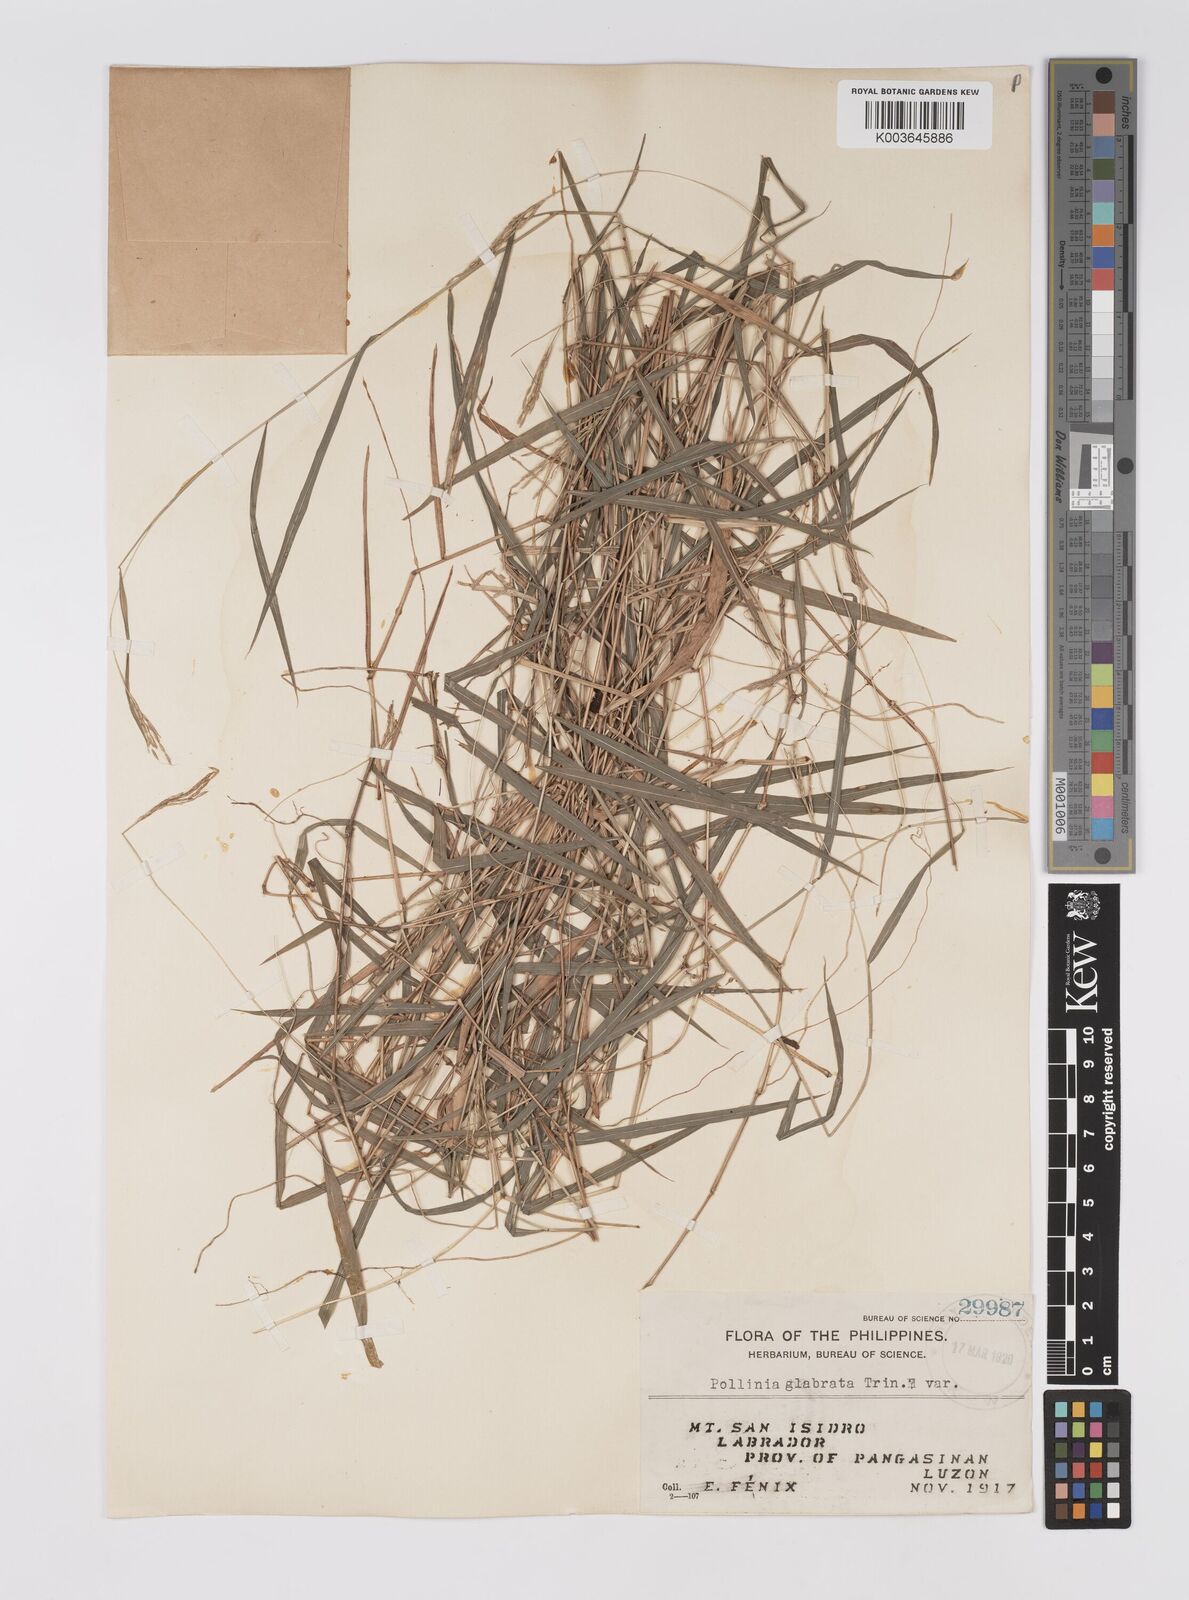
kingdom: Plantae
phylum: Tracheophyta
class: Liliopsida
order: Poales
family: Poaceae
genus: Microstegium
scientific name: Microstegium glabratum
